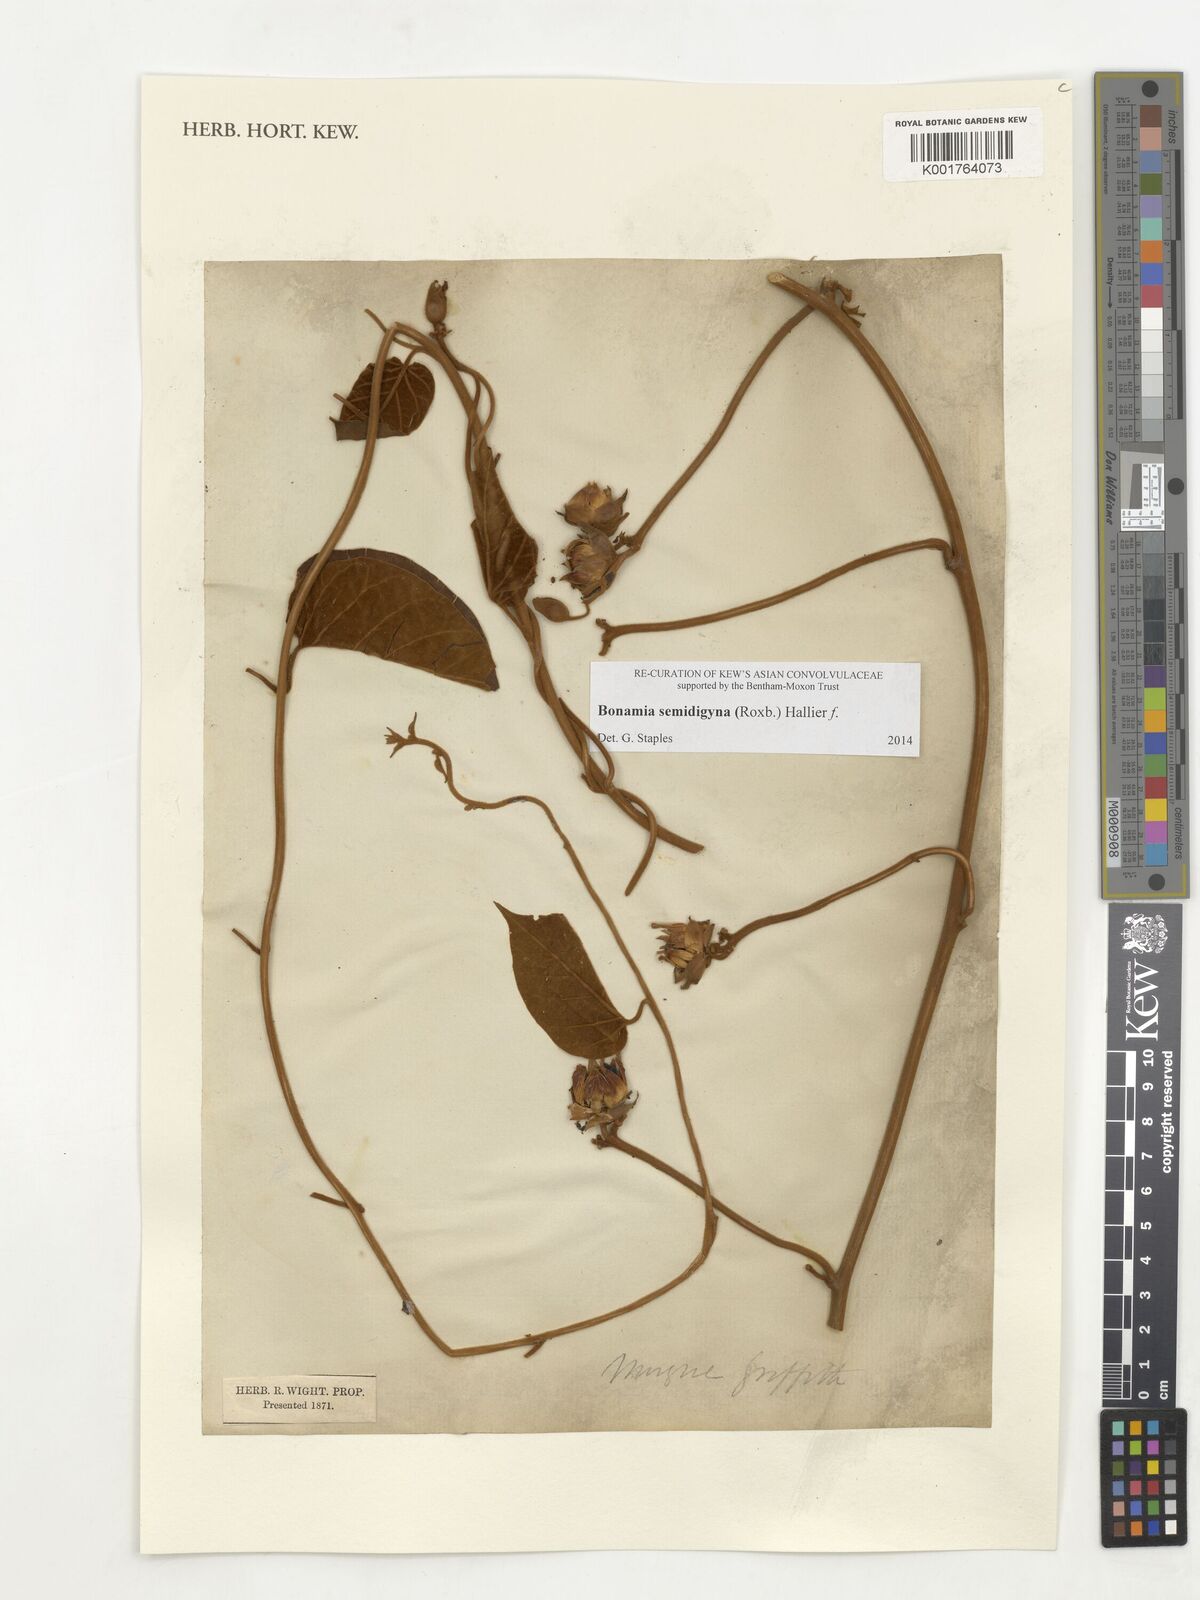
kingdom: Plantae
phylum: Tracheophyta
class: Magnoliopsida
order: Solanales
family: Convolvulaceae
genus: Bonamia
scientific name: Bonamia semidigyna
